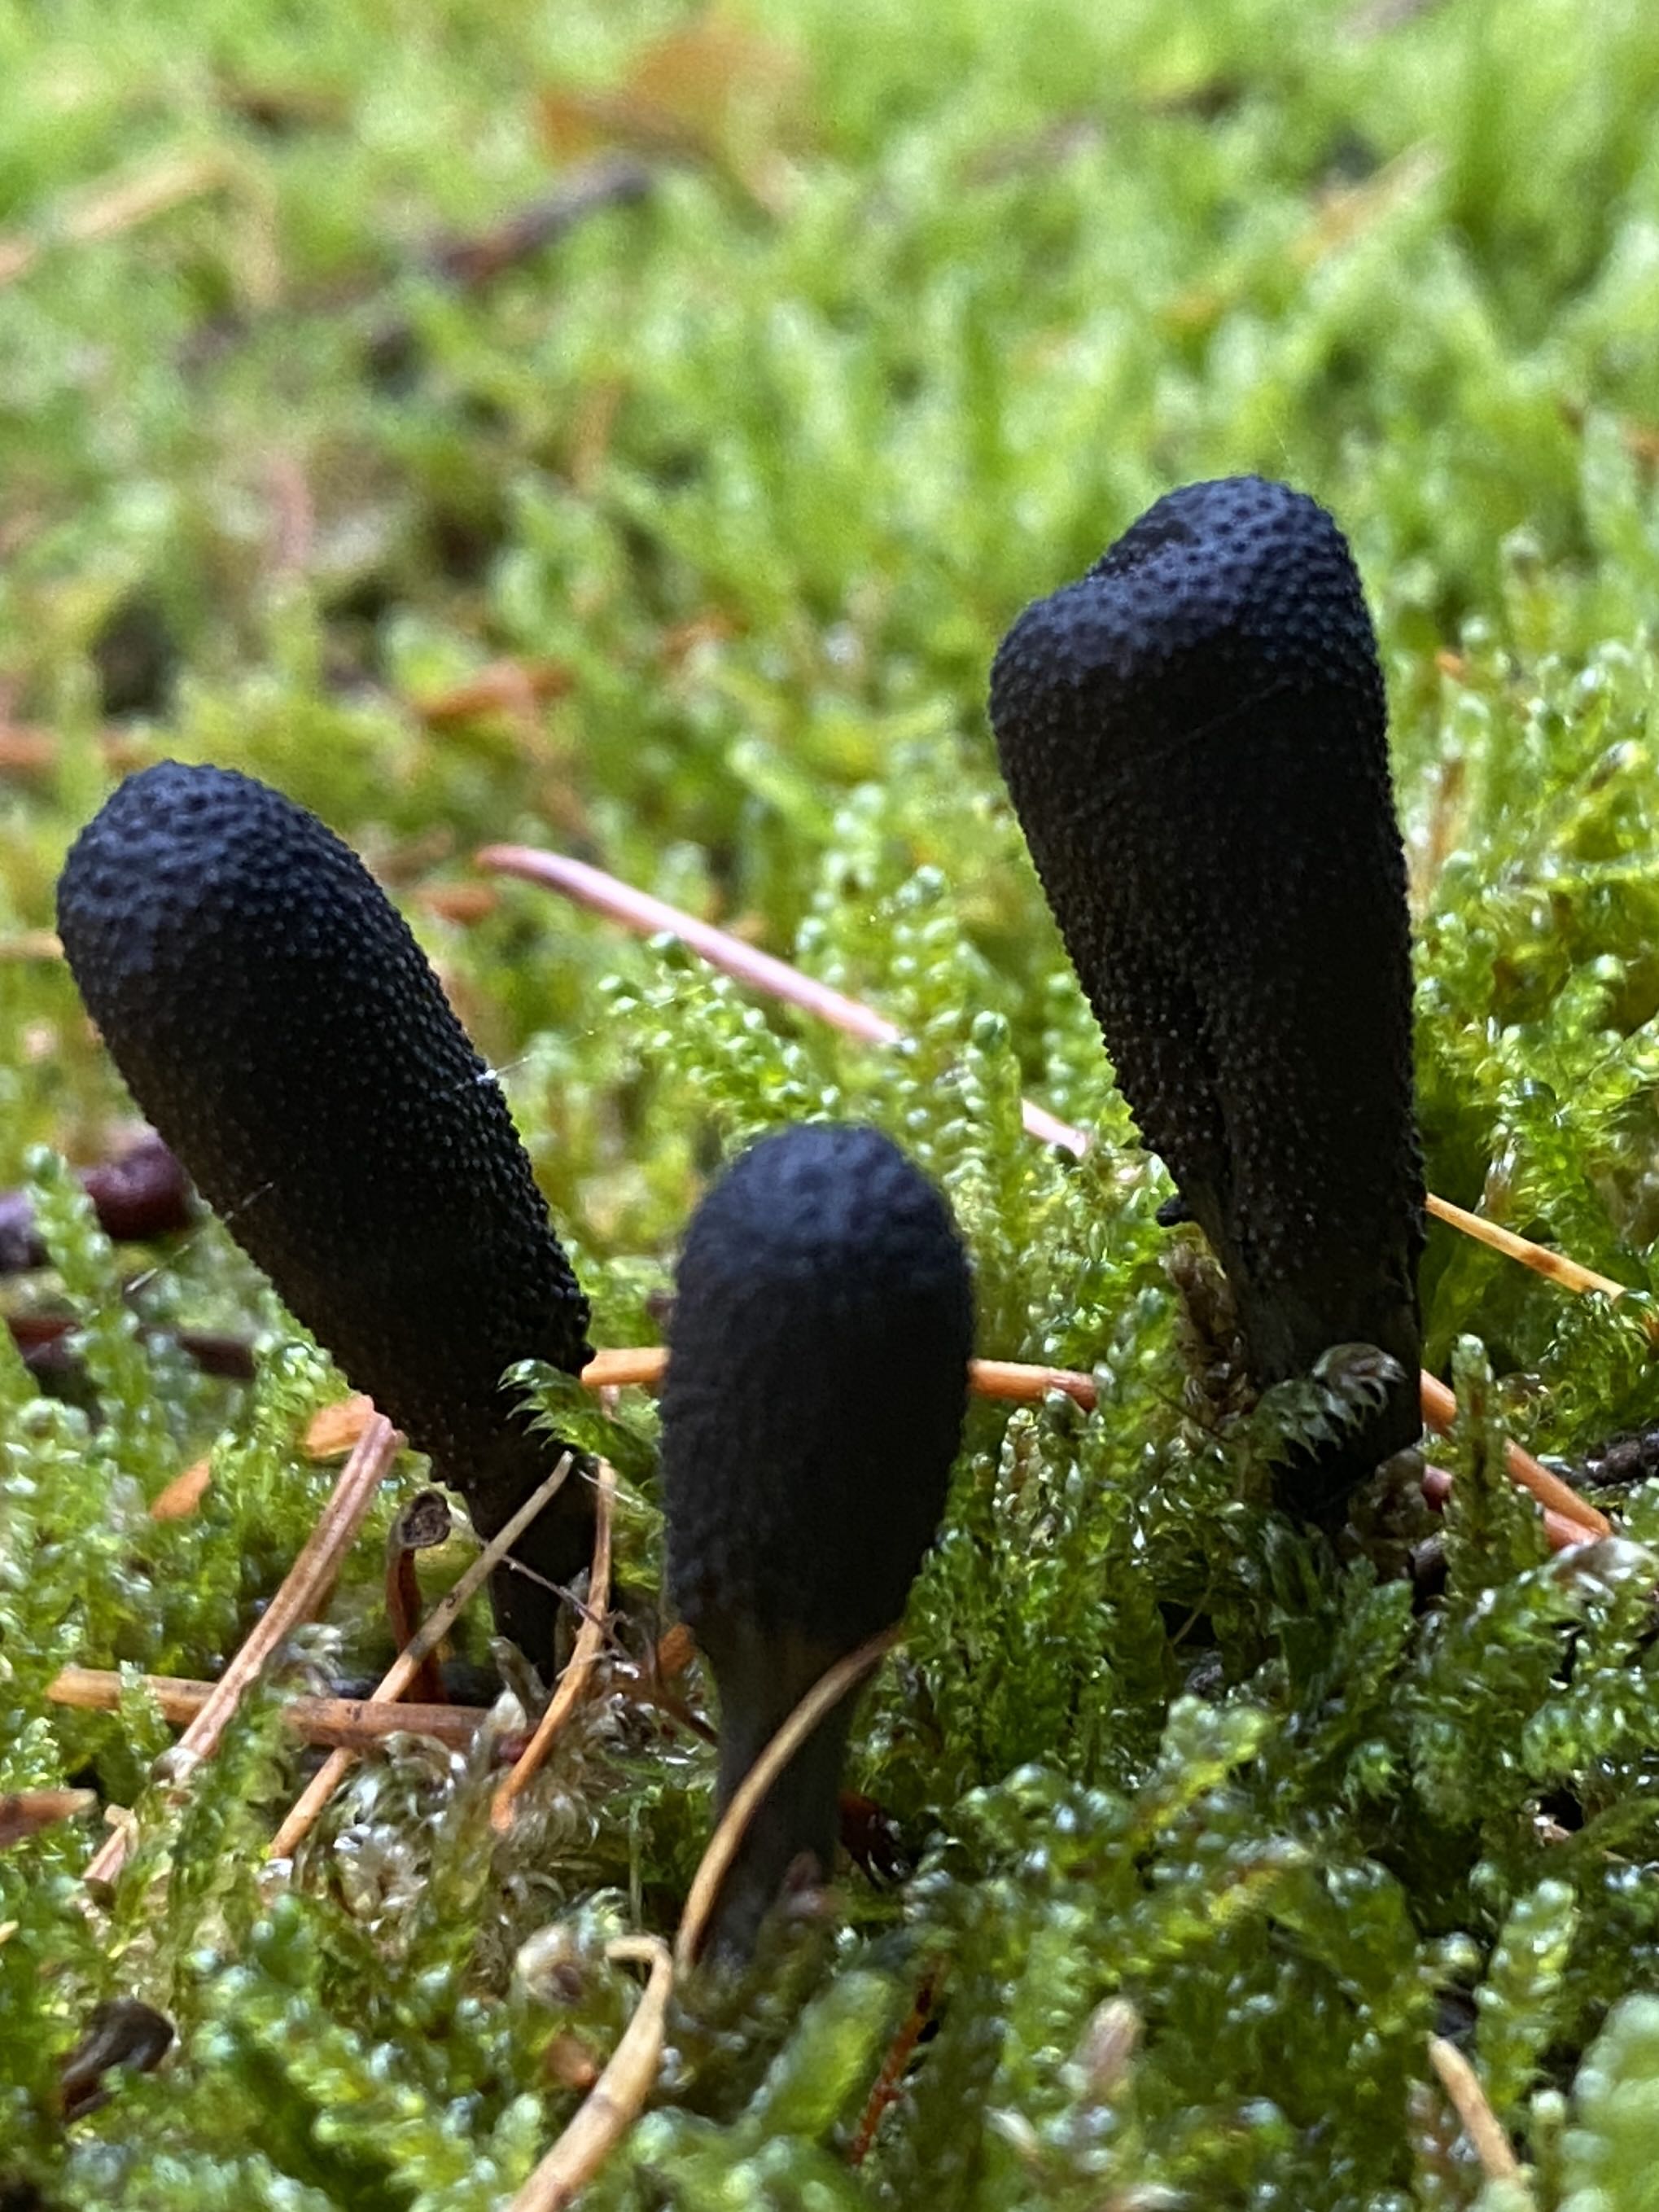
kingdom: Fungi
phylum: Ascomycota
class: Sordariomycetes
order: Hypocreales
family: Ophiocordycipitaceae
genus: Tolypocladium
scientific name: Tolypocladium ophioglossoides
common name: slank snyltekølle
